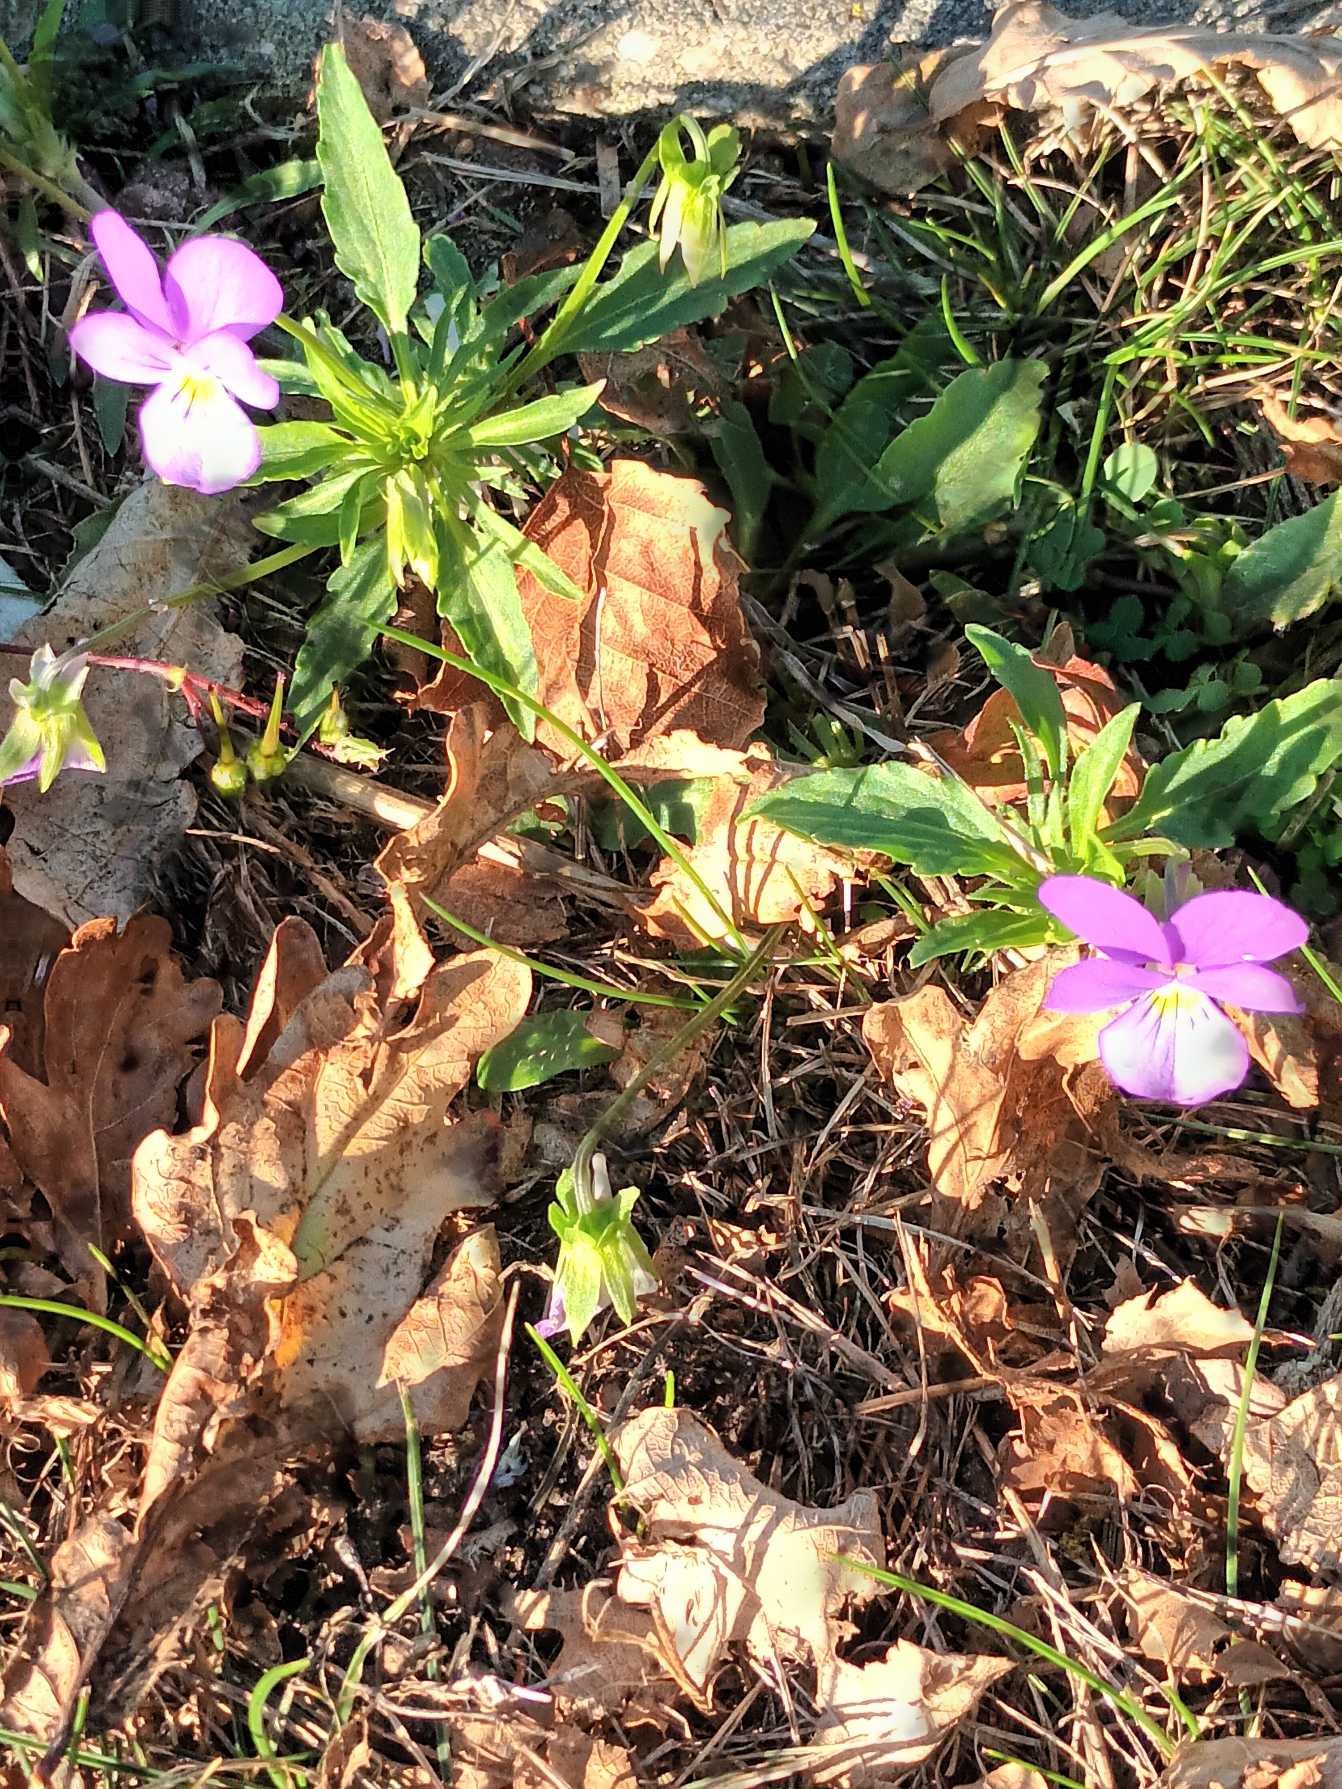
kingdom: Plantae
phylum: Tracheophyta
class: Magnoliopsida
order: Malpighiales
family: Violaceae
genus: Viola
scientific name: Viola tricolor
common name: Stedmoderblomst
